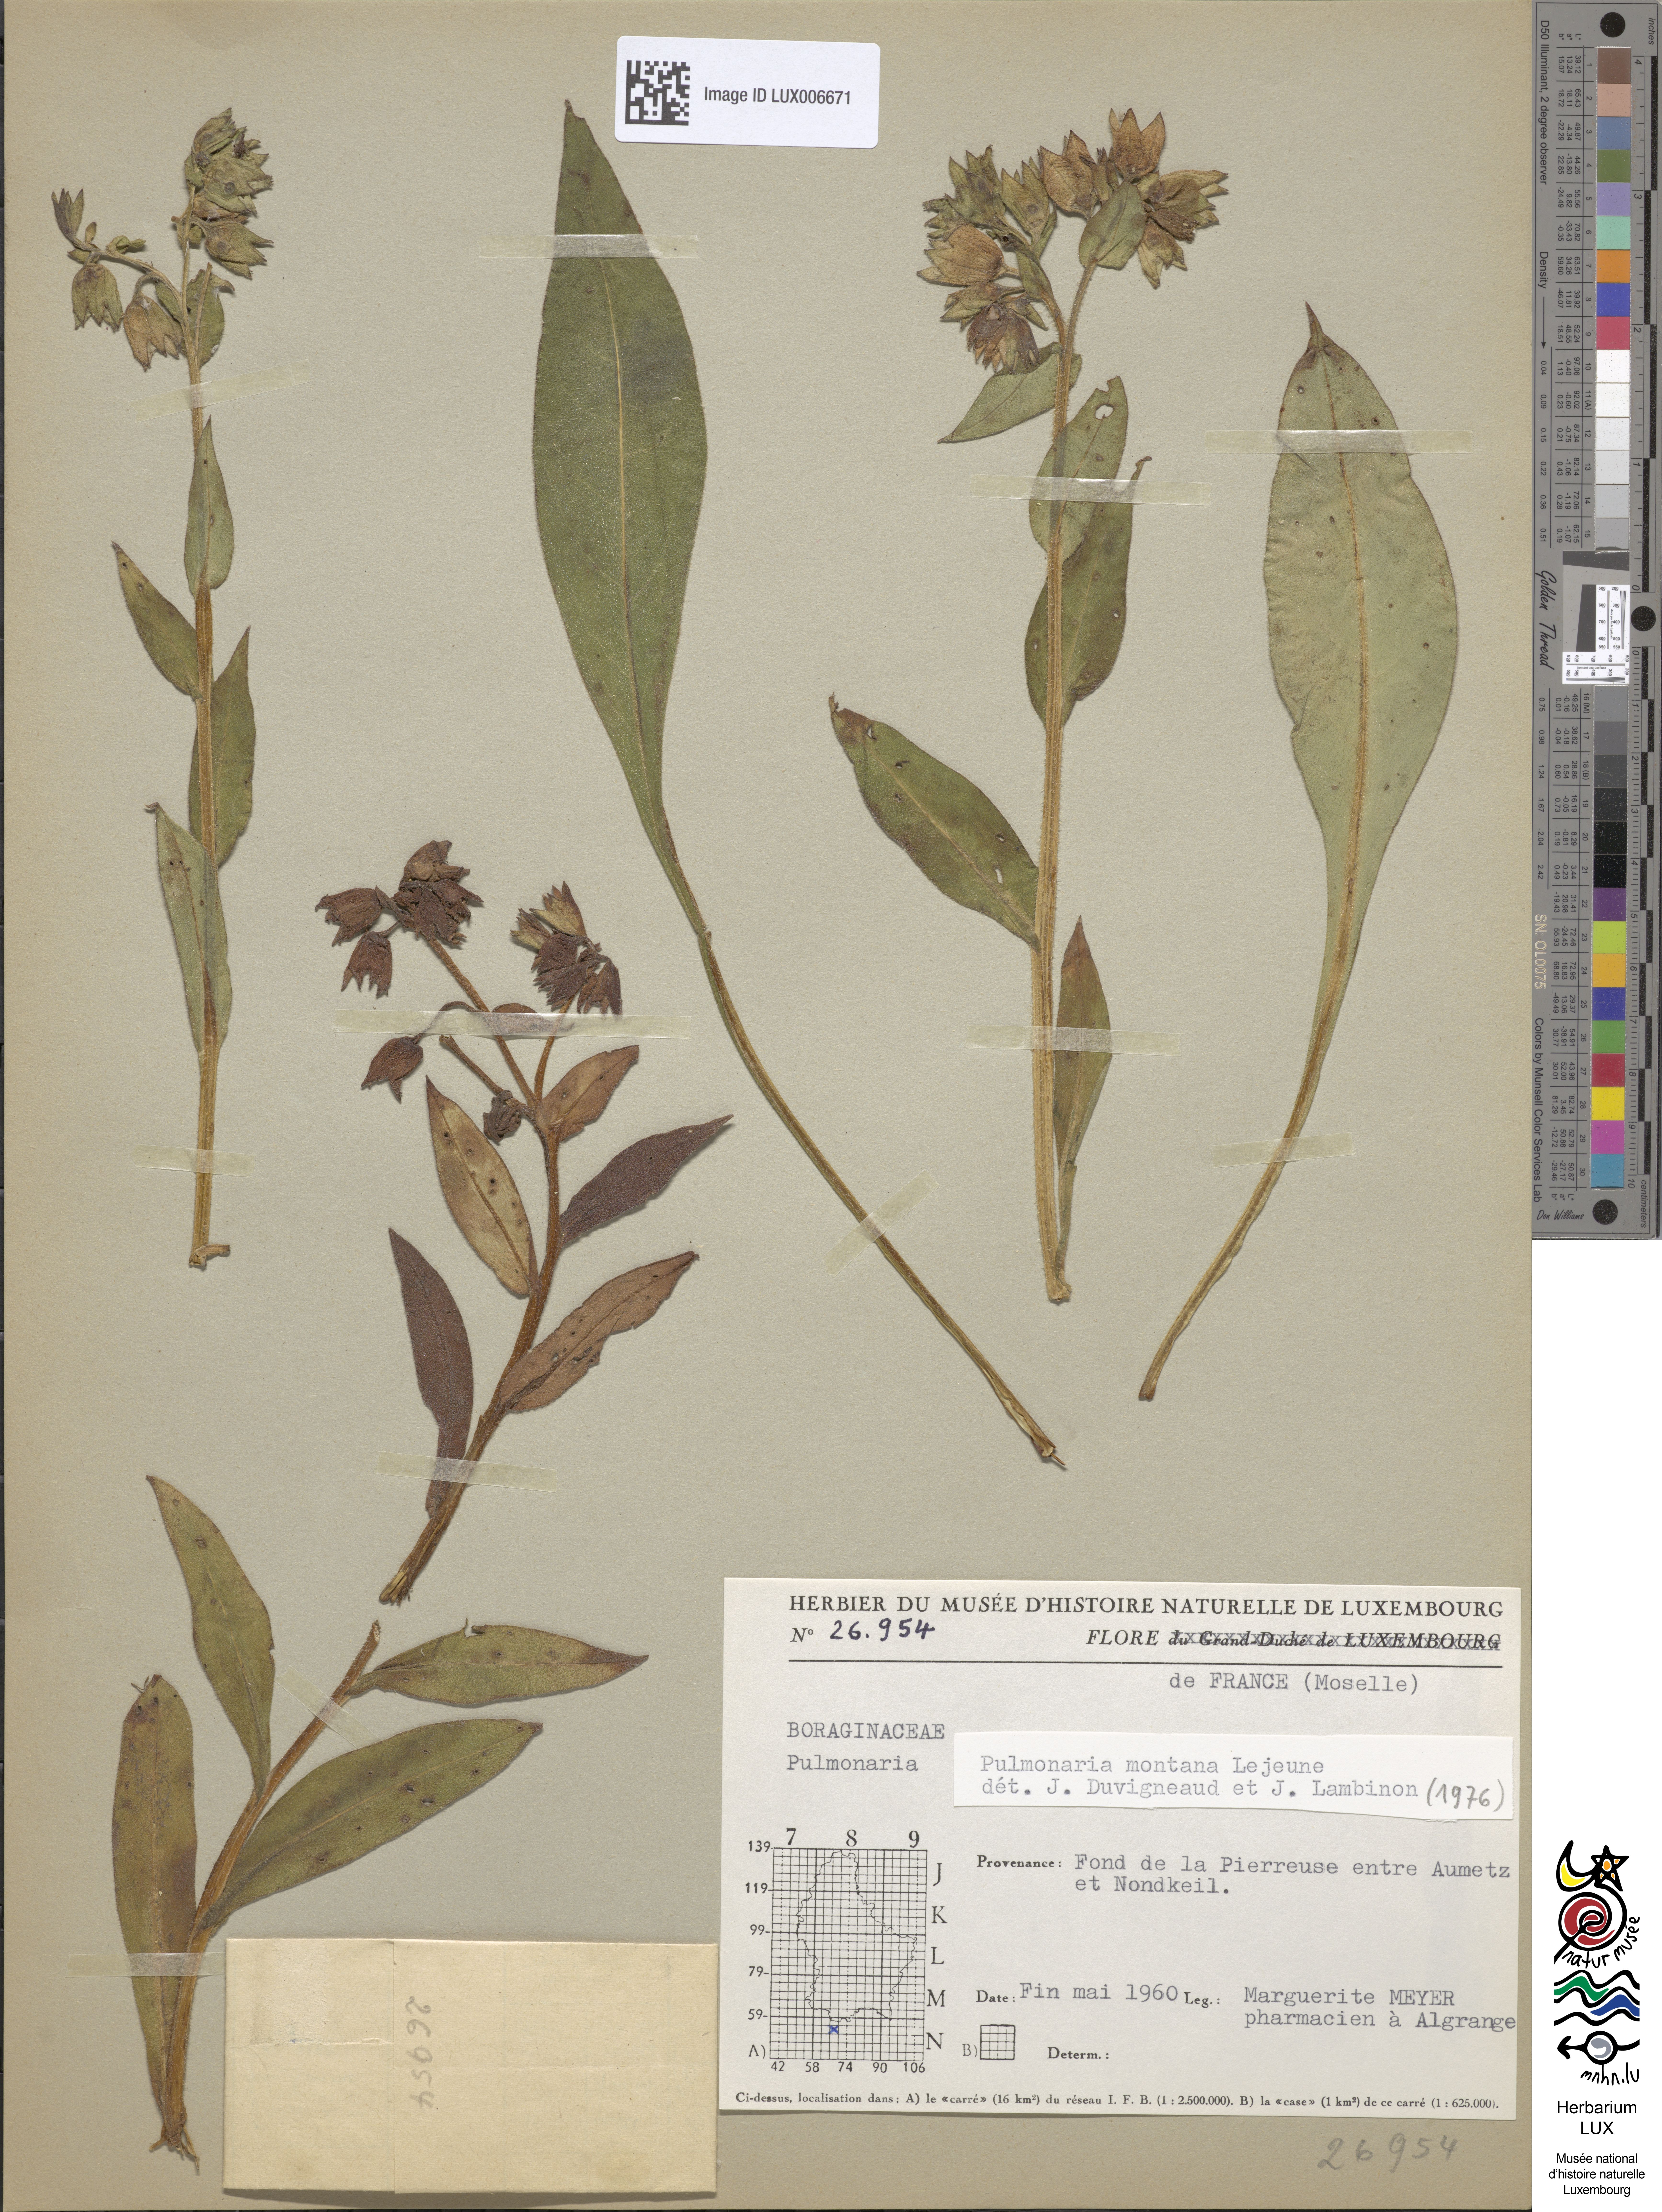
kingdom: Plantae
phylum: Tracheophyta
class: Magnoliopsida
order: Boraginales
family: Boraginaceae
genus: Pulmonaria
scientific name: Pulmonaria montana
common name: Mountain lungwort
